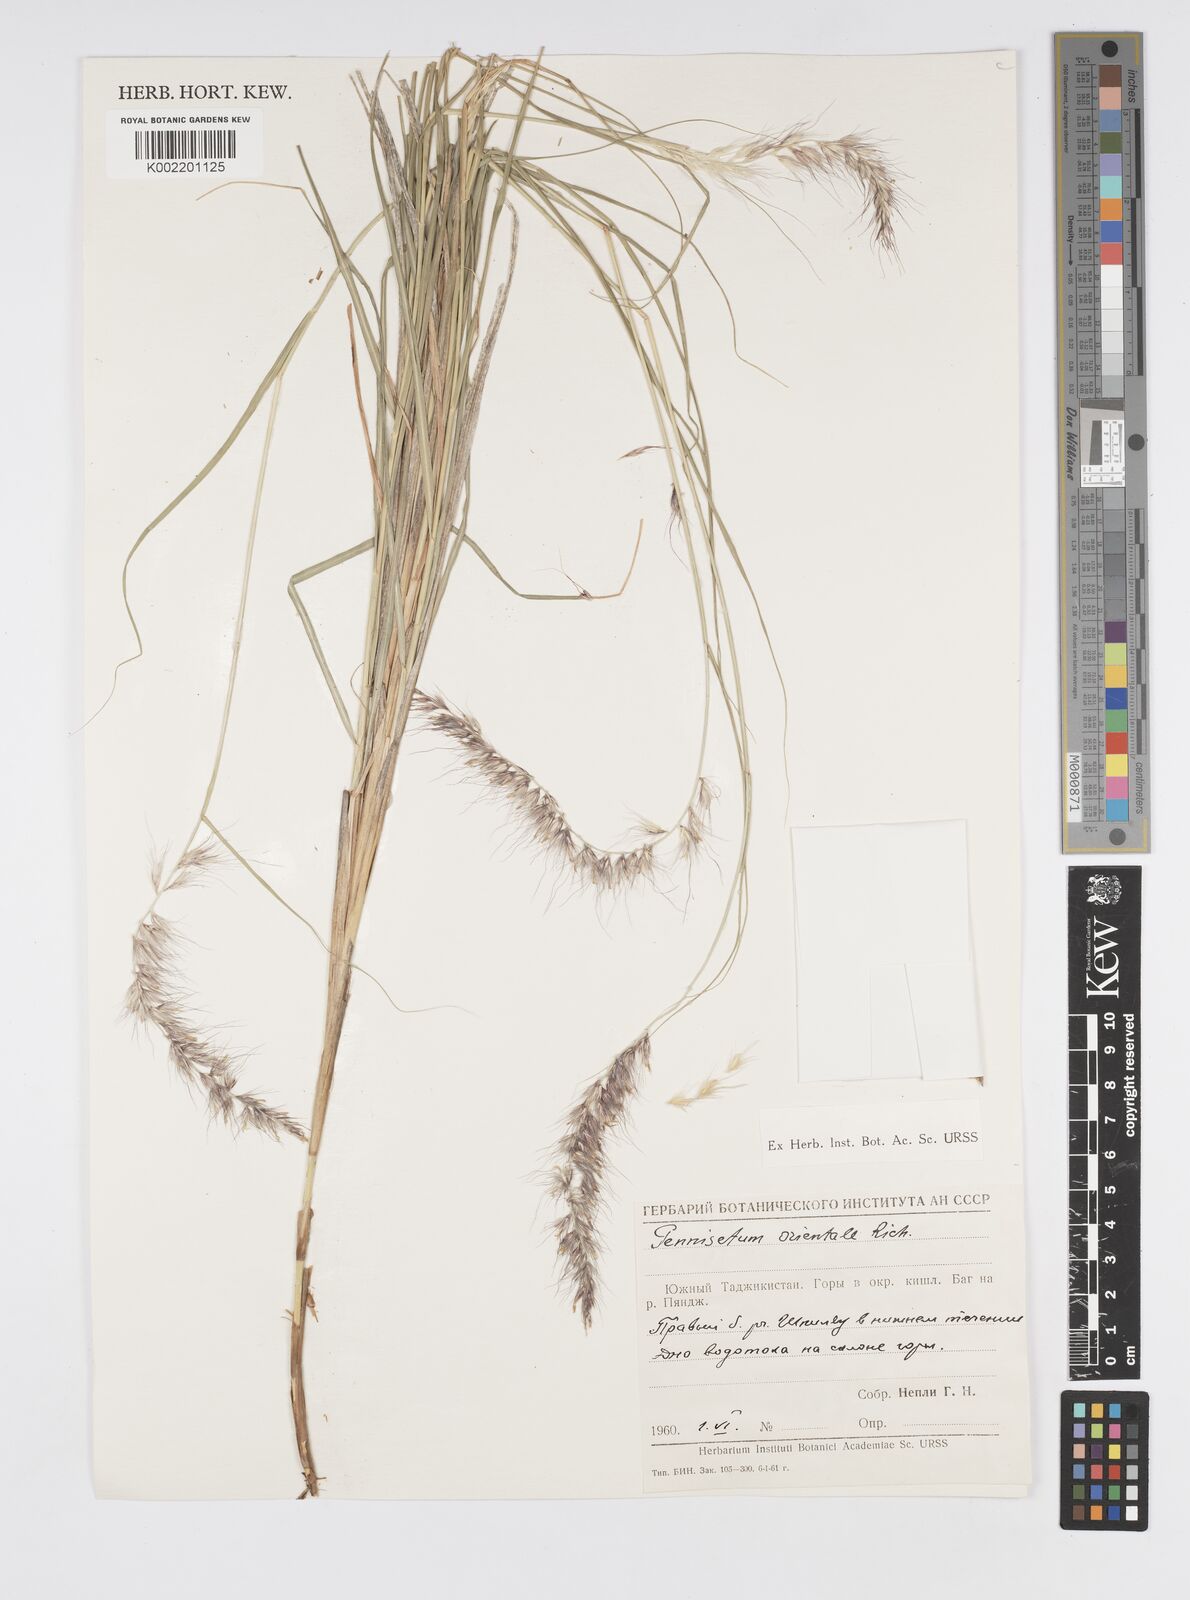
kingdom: Plantae
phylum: Tracheophyta
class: Liliopsida
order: Poales
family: Poaceae
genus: Cenchrus
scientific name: Cenchrus orientalis
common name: Oriental fountain grass
